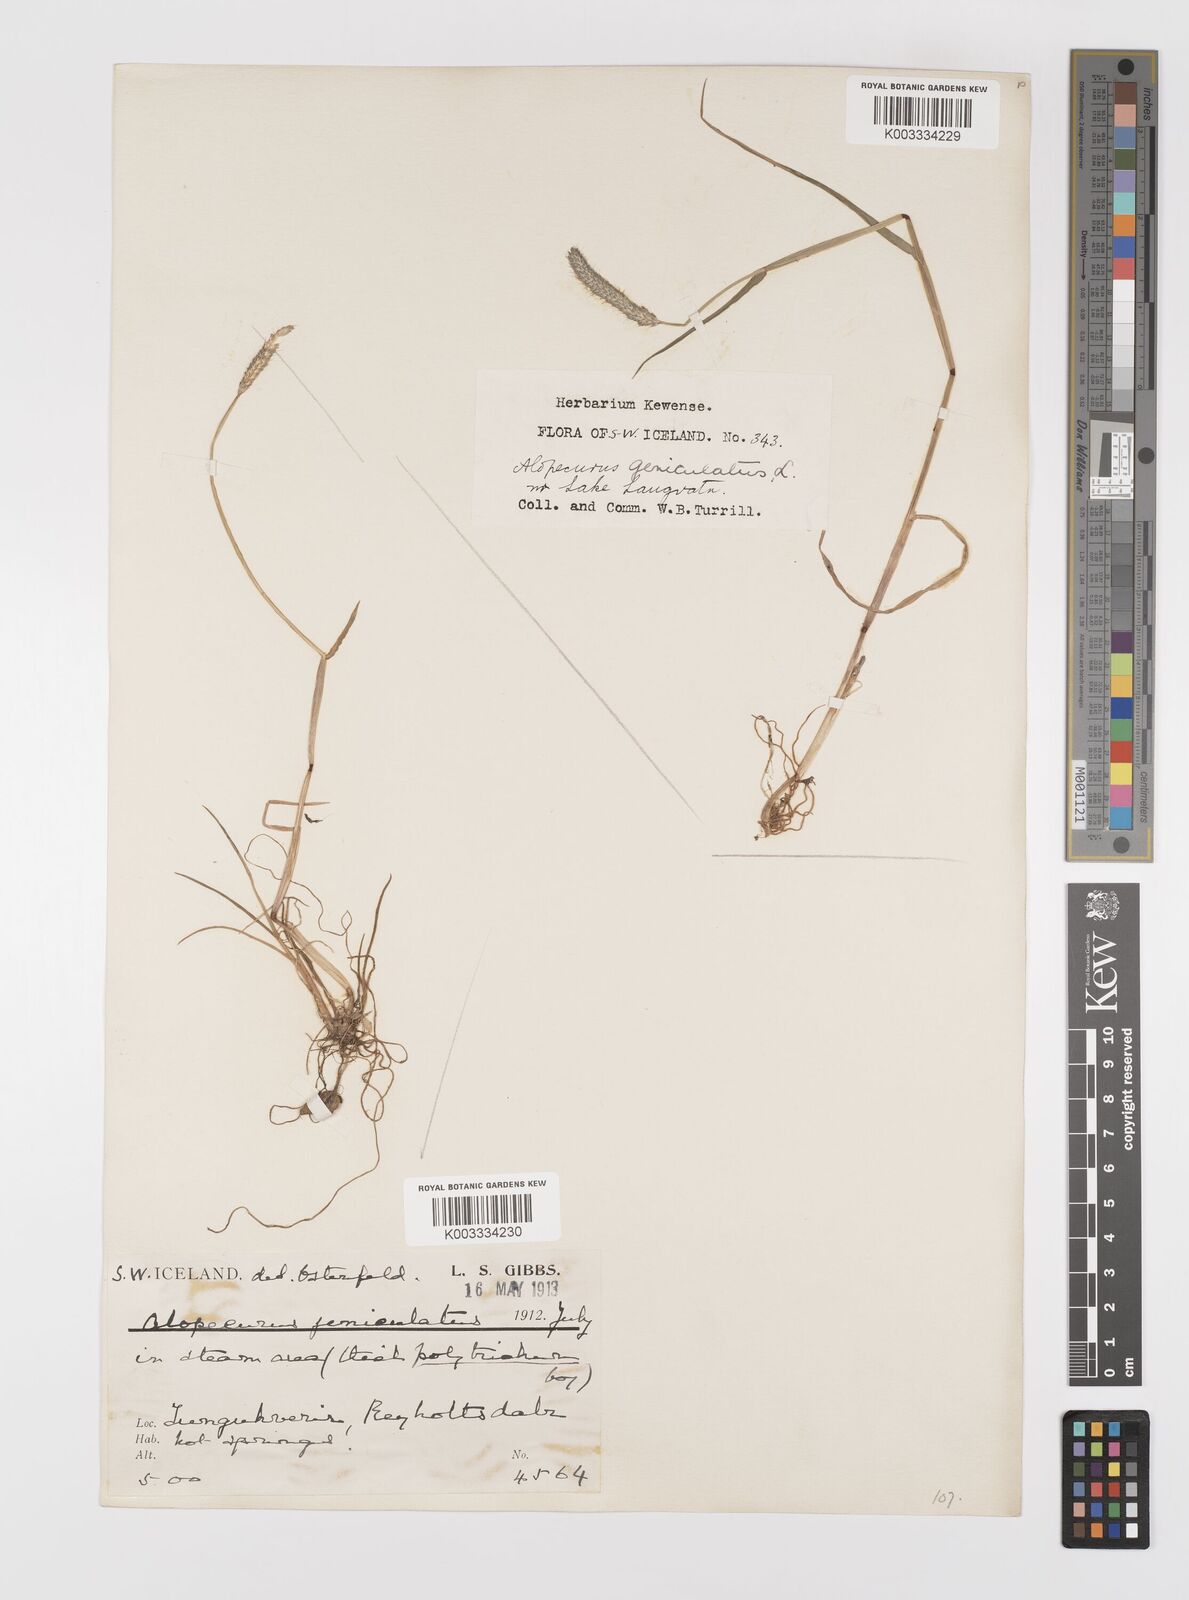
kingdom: Plantae
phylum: Tracheophyta
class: Liliopsida
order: Poales
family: Poaceae
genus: Alopecurus
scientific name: Alopecurus geniculatus
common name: Water foxtail
